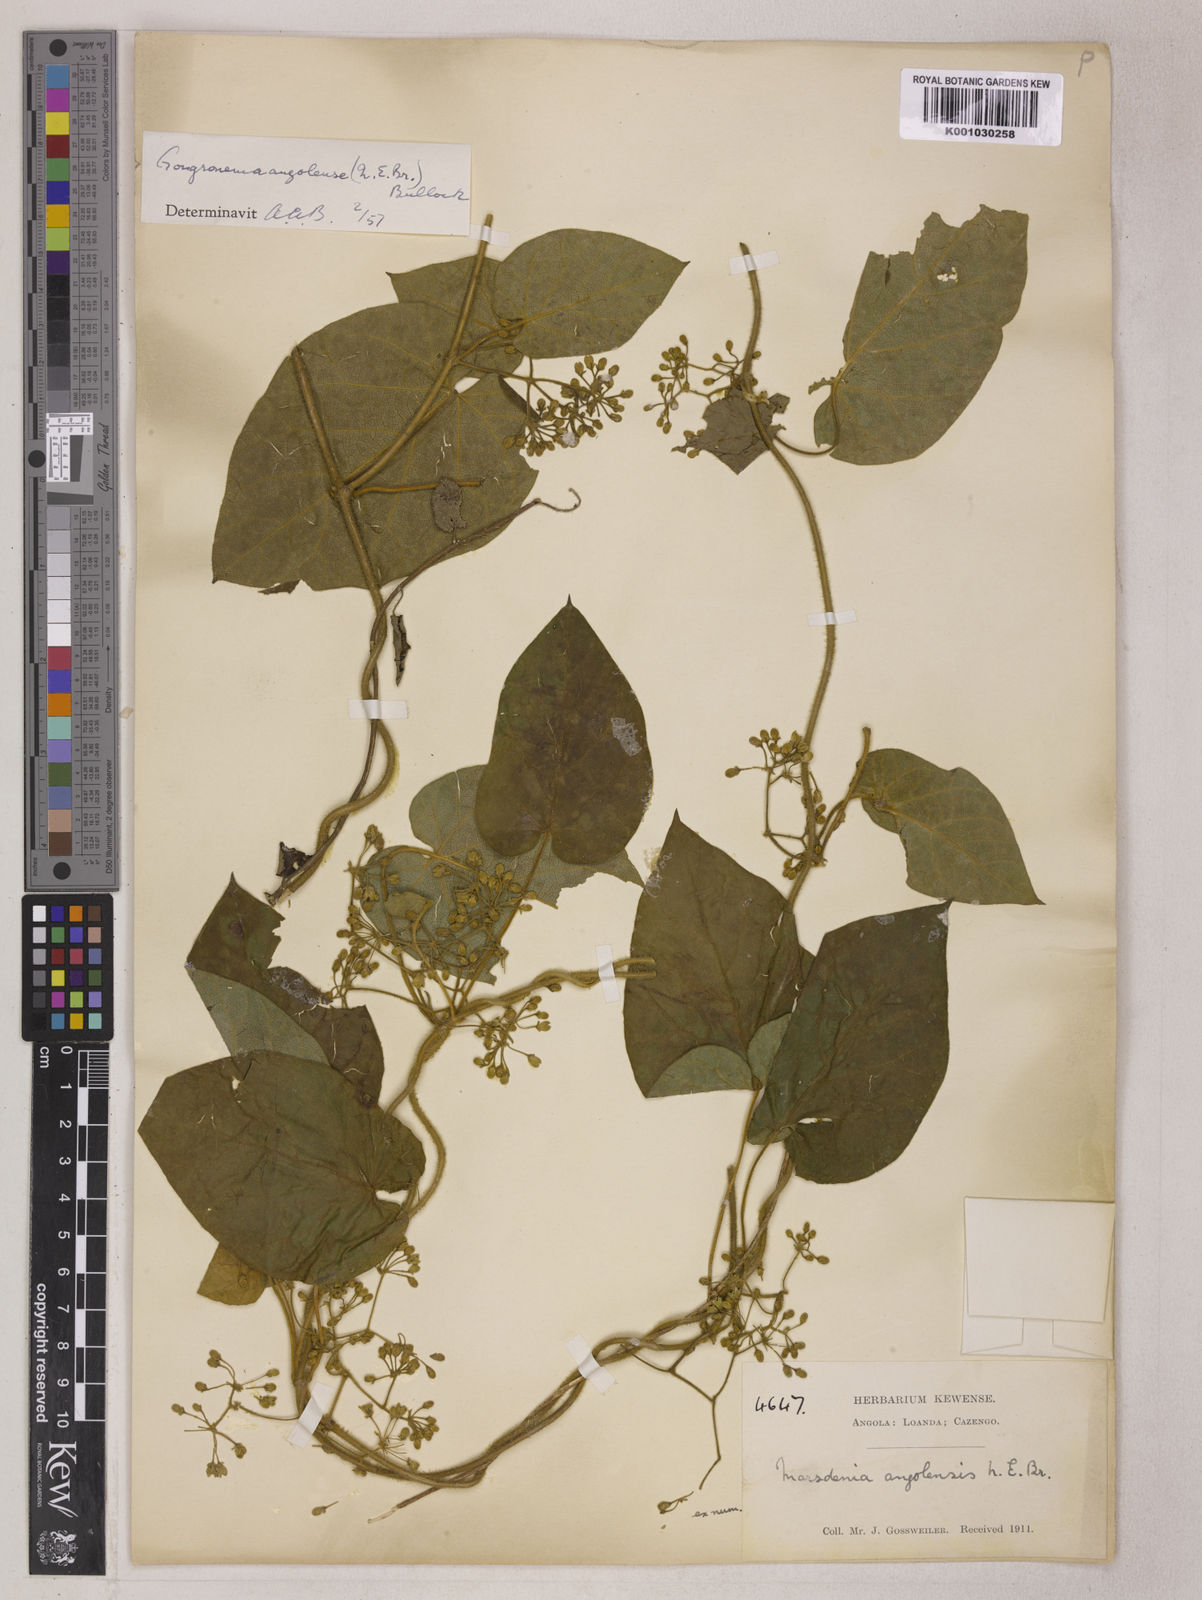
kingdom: Plantae
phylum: Tracheophyta
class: Magnoliopsida
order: Gentianales
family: Apocynaceae
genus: Gongronemopsis
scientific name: Gongronemopsis angolensis
